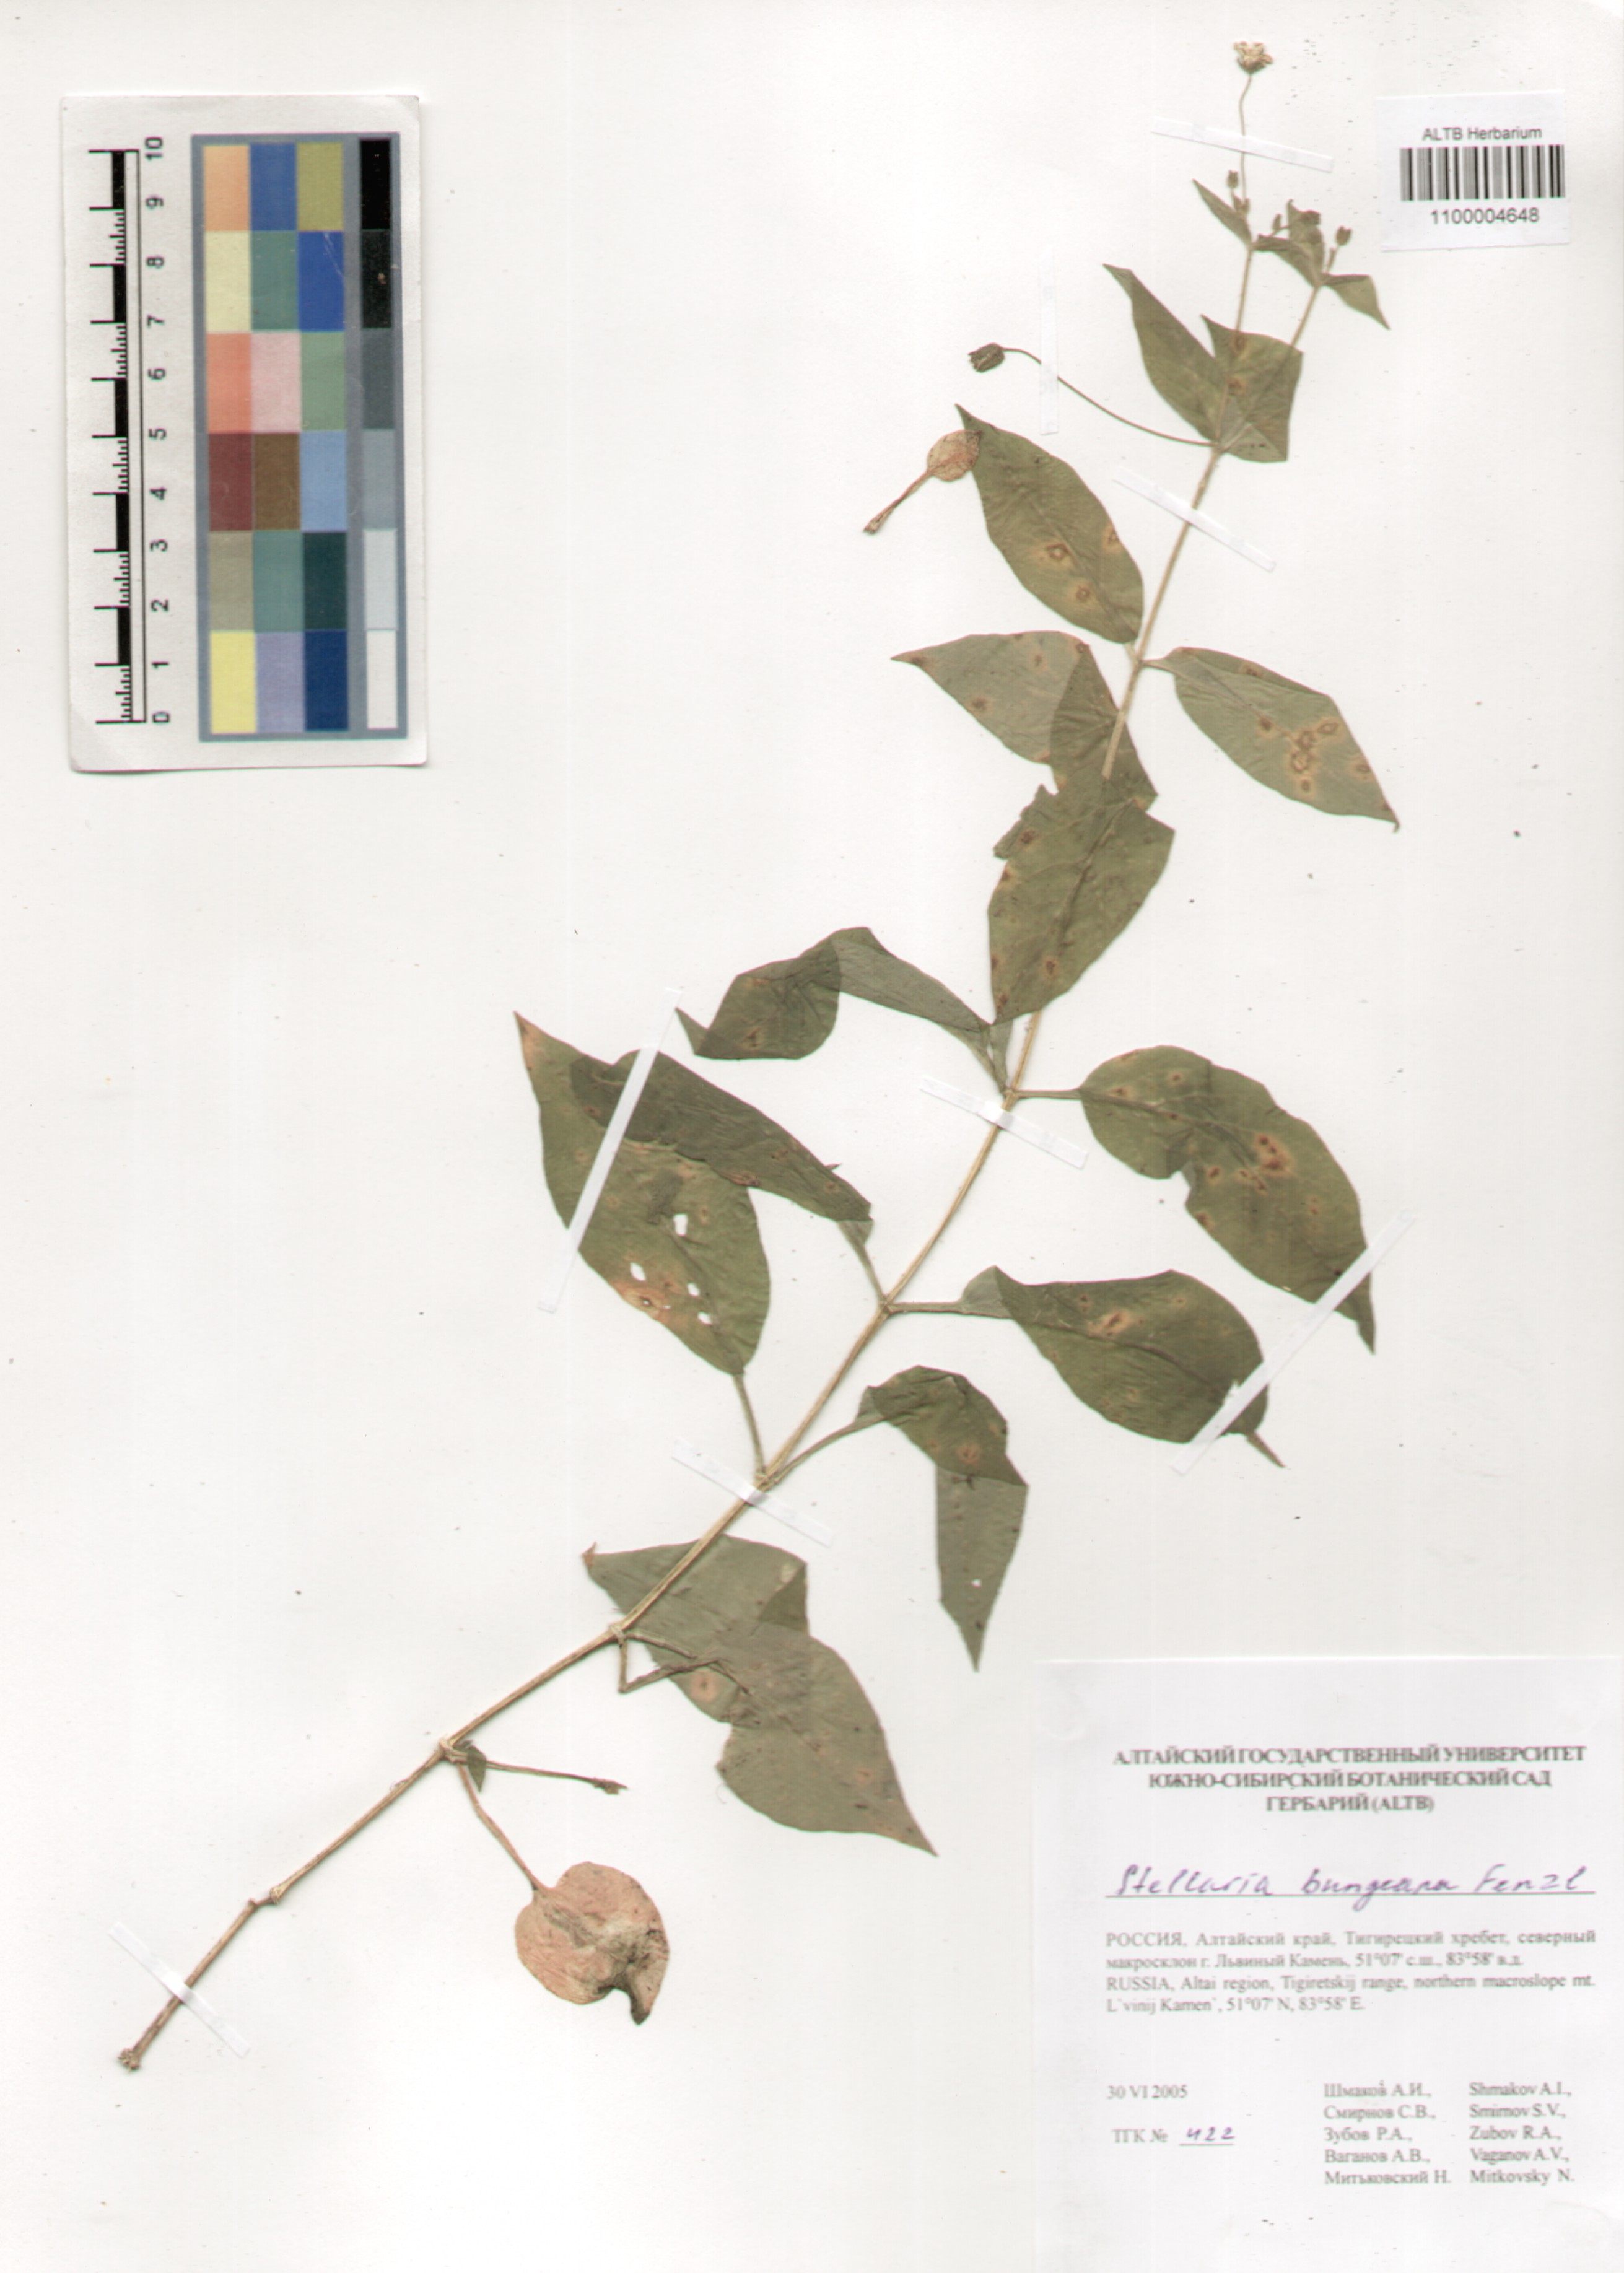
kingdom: Plantae
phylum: Tracheophyta
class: Magnoliopsida
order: Caryophyllales
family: Caryophyllaceae
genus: Stellaria
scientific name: Stellaria bungeana
